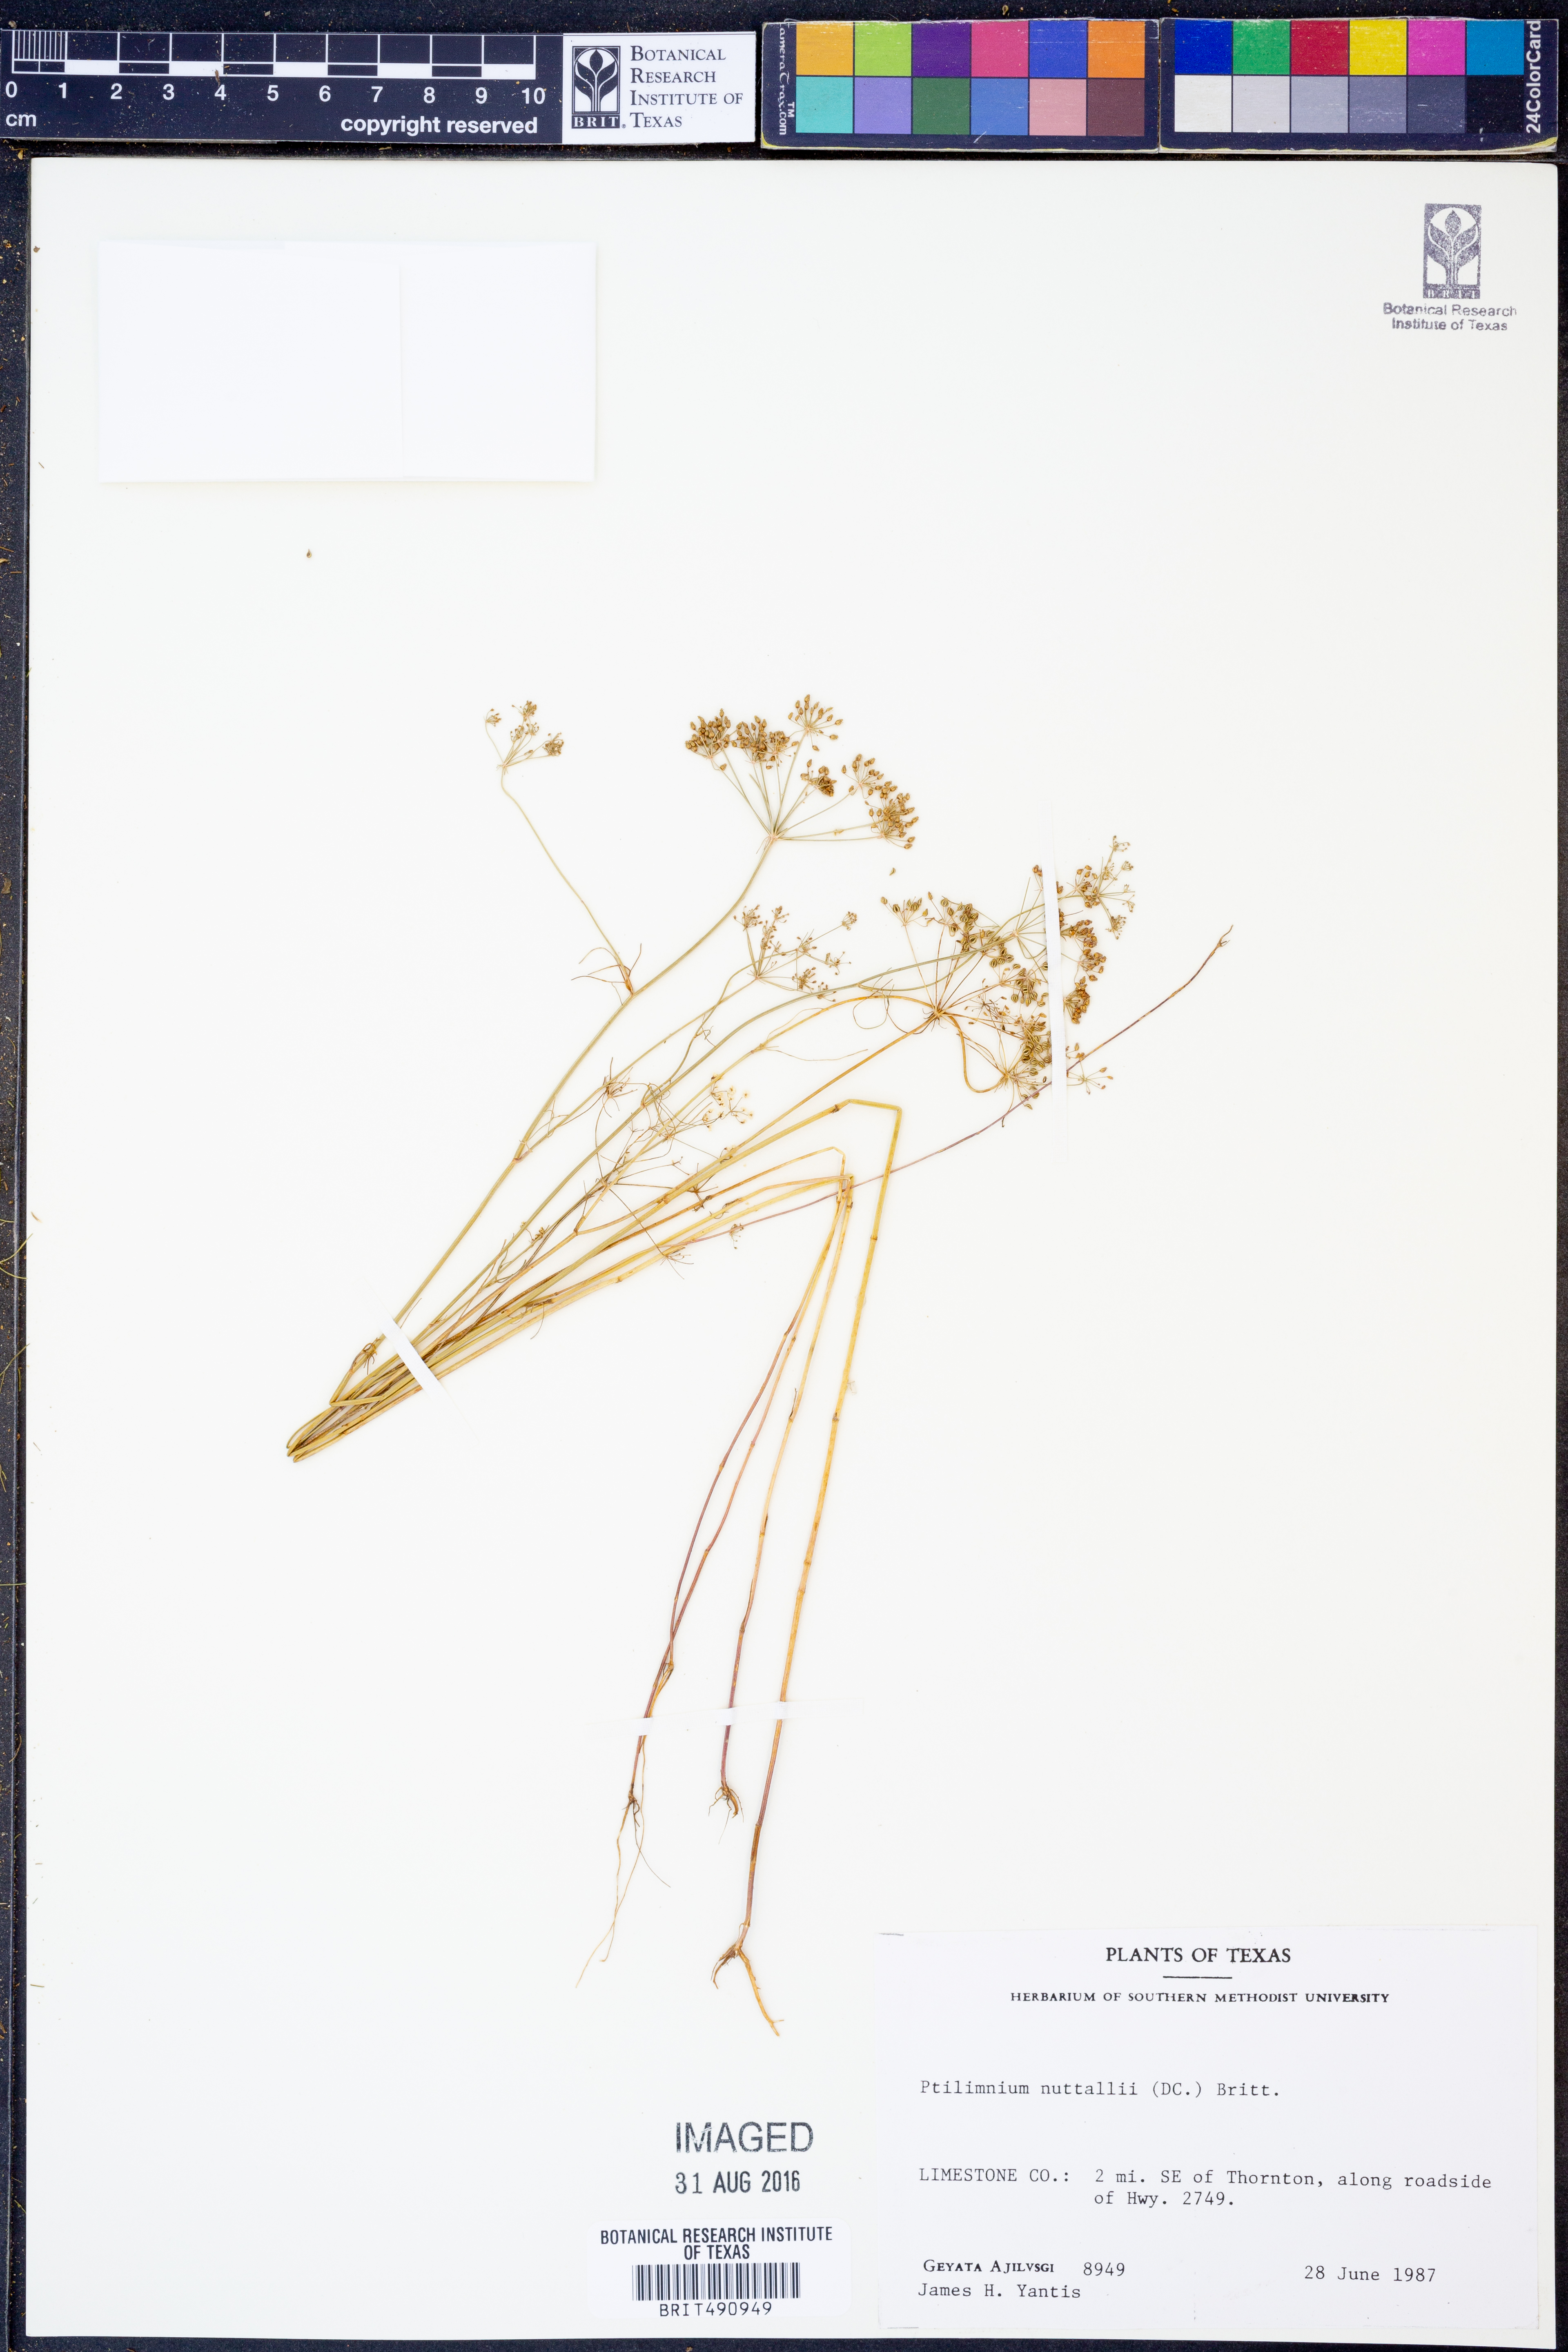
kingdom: Plantae
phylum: Tracheophyta
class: Magnoliopsida
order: Apiales
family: Apiaceae
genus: Ptilimnium
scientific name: Ptilimnium nuttallii
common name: Ozark bishop's-weed
